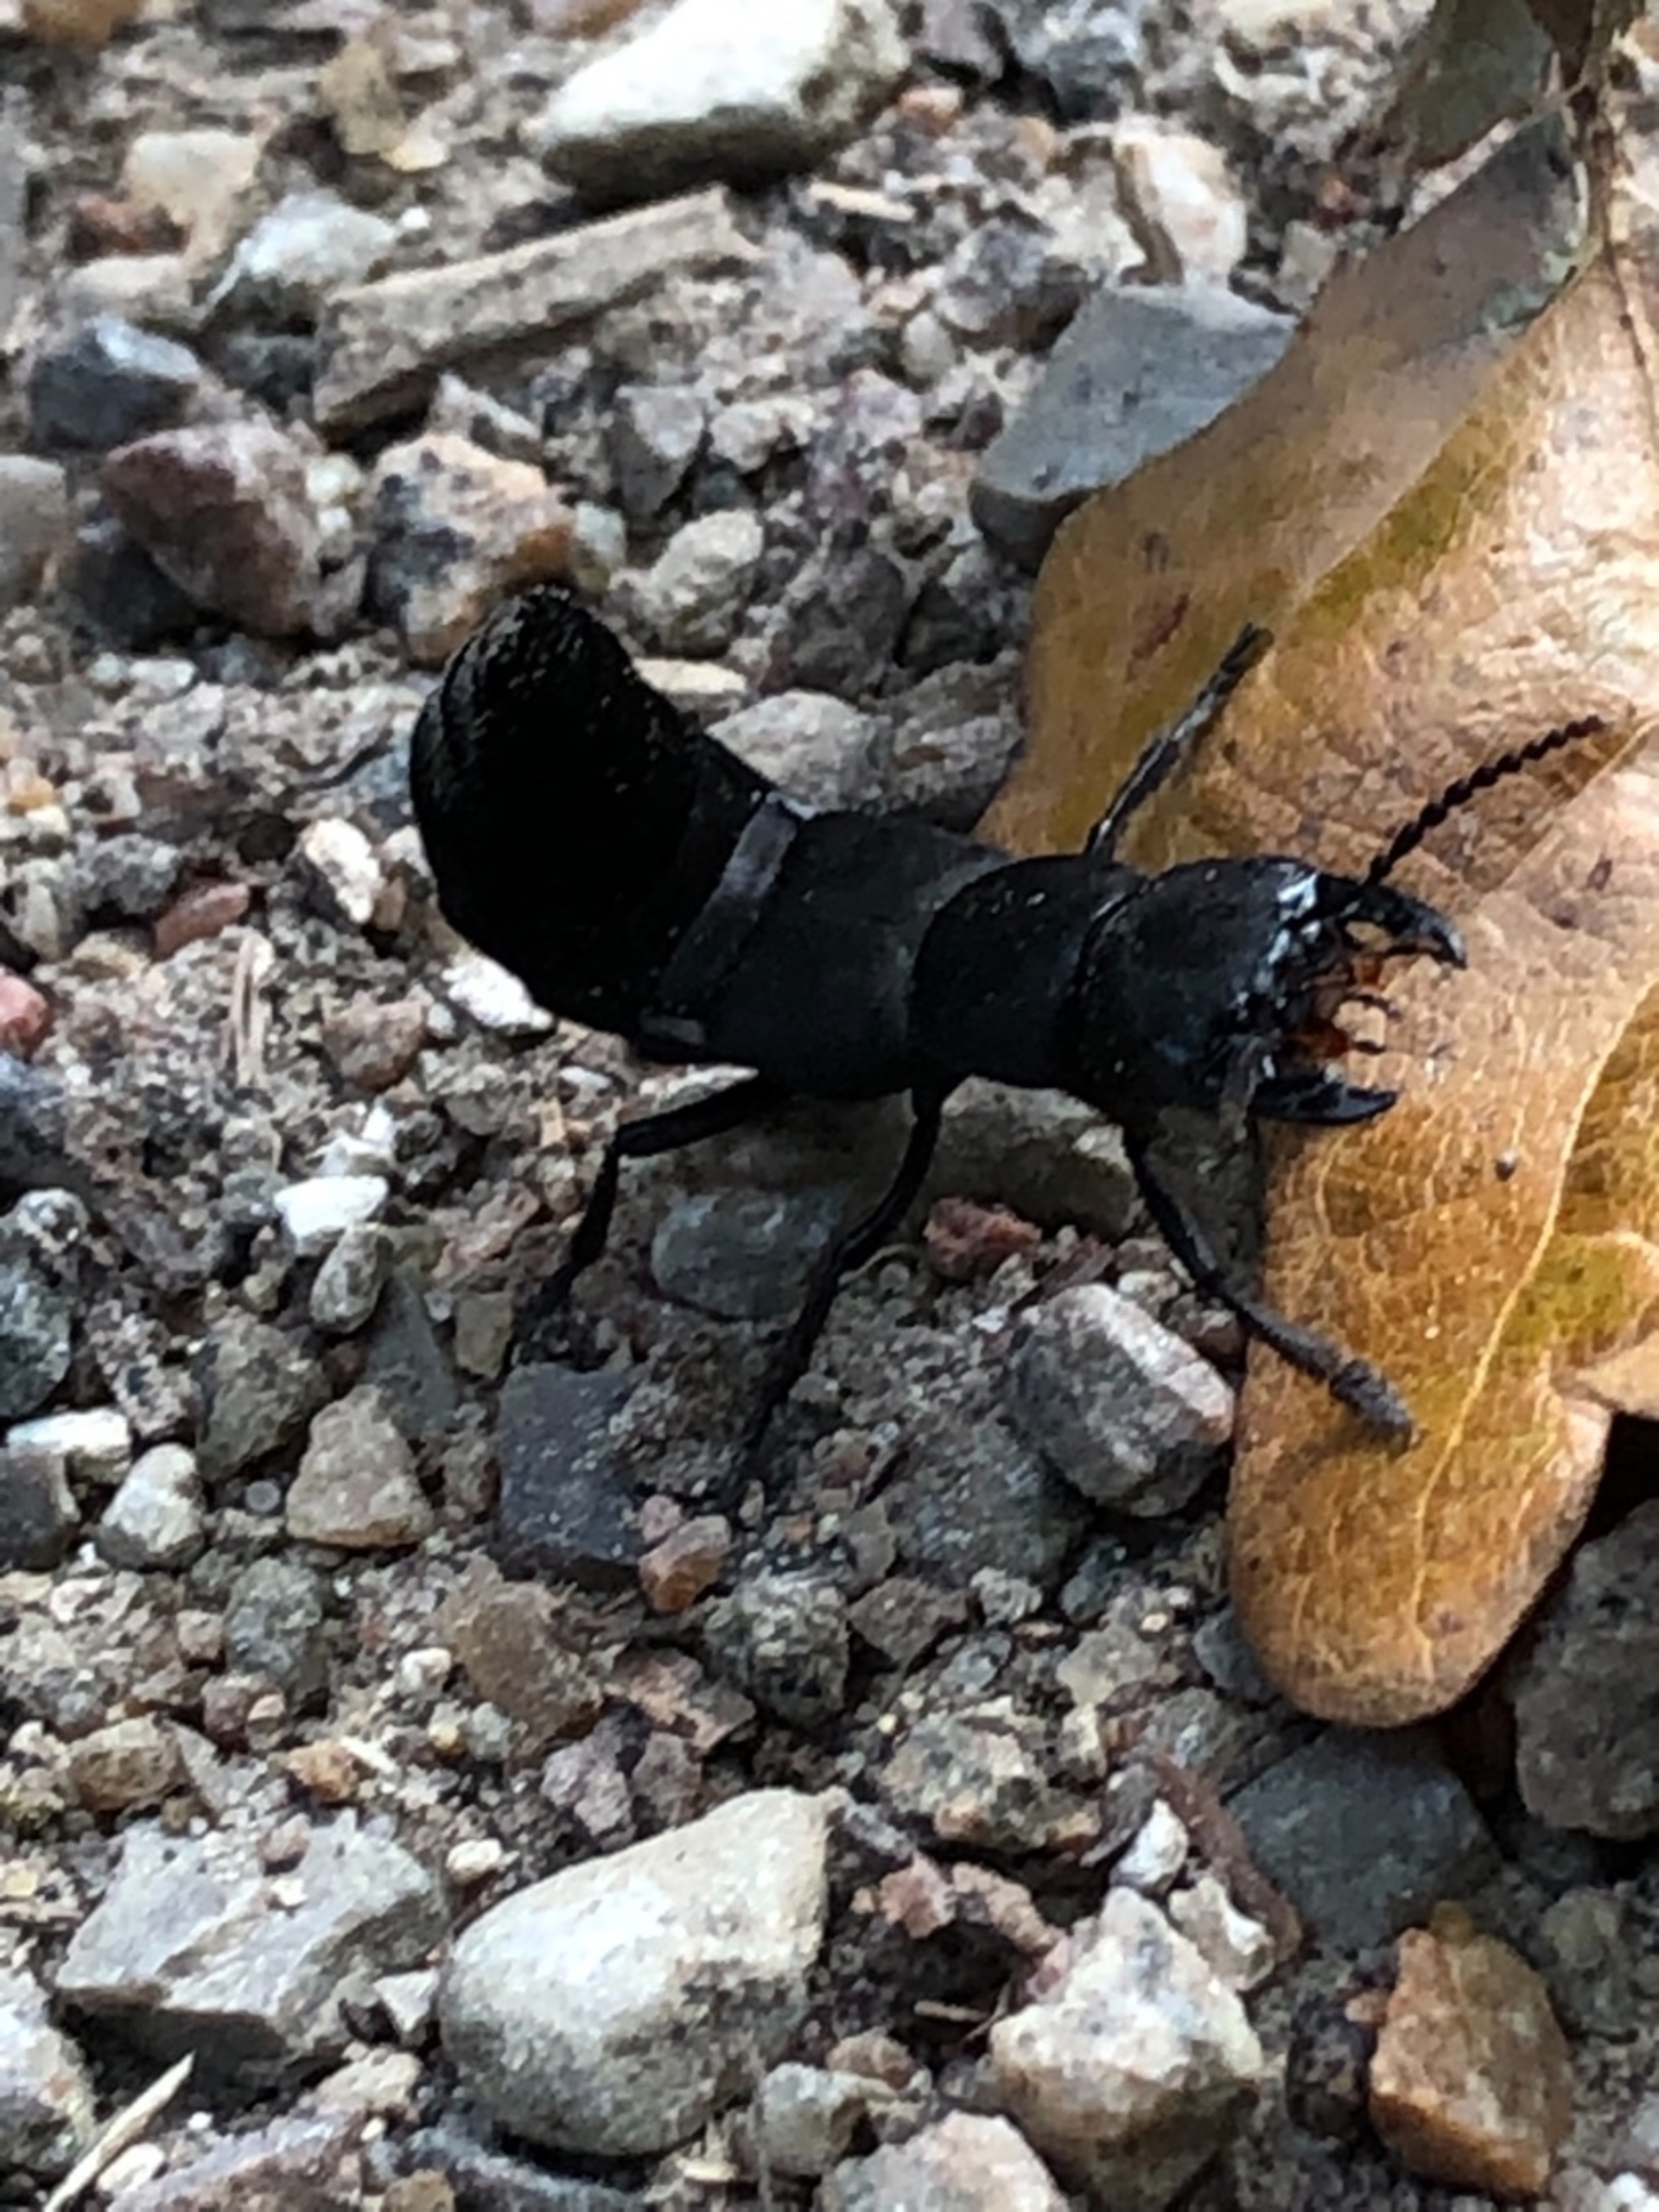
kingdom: Animalia
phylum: Arthropoda
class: Insecta
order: Coleoptera
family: Staphylinidae
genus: Ocypus
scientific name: Ocypus olens
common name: Stor rovbille
